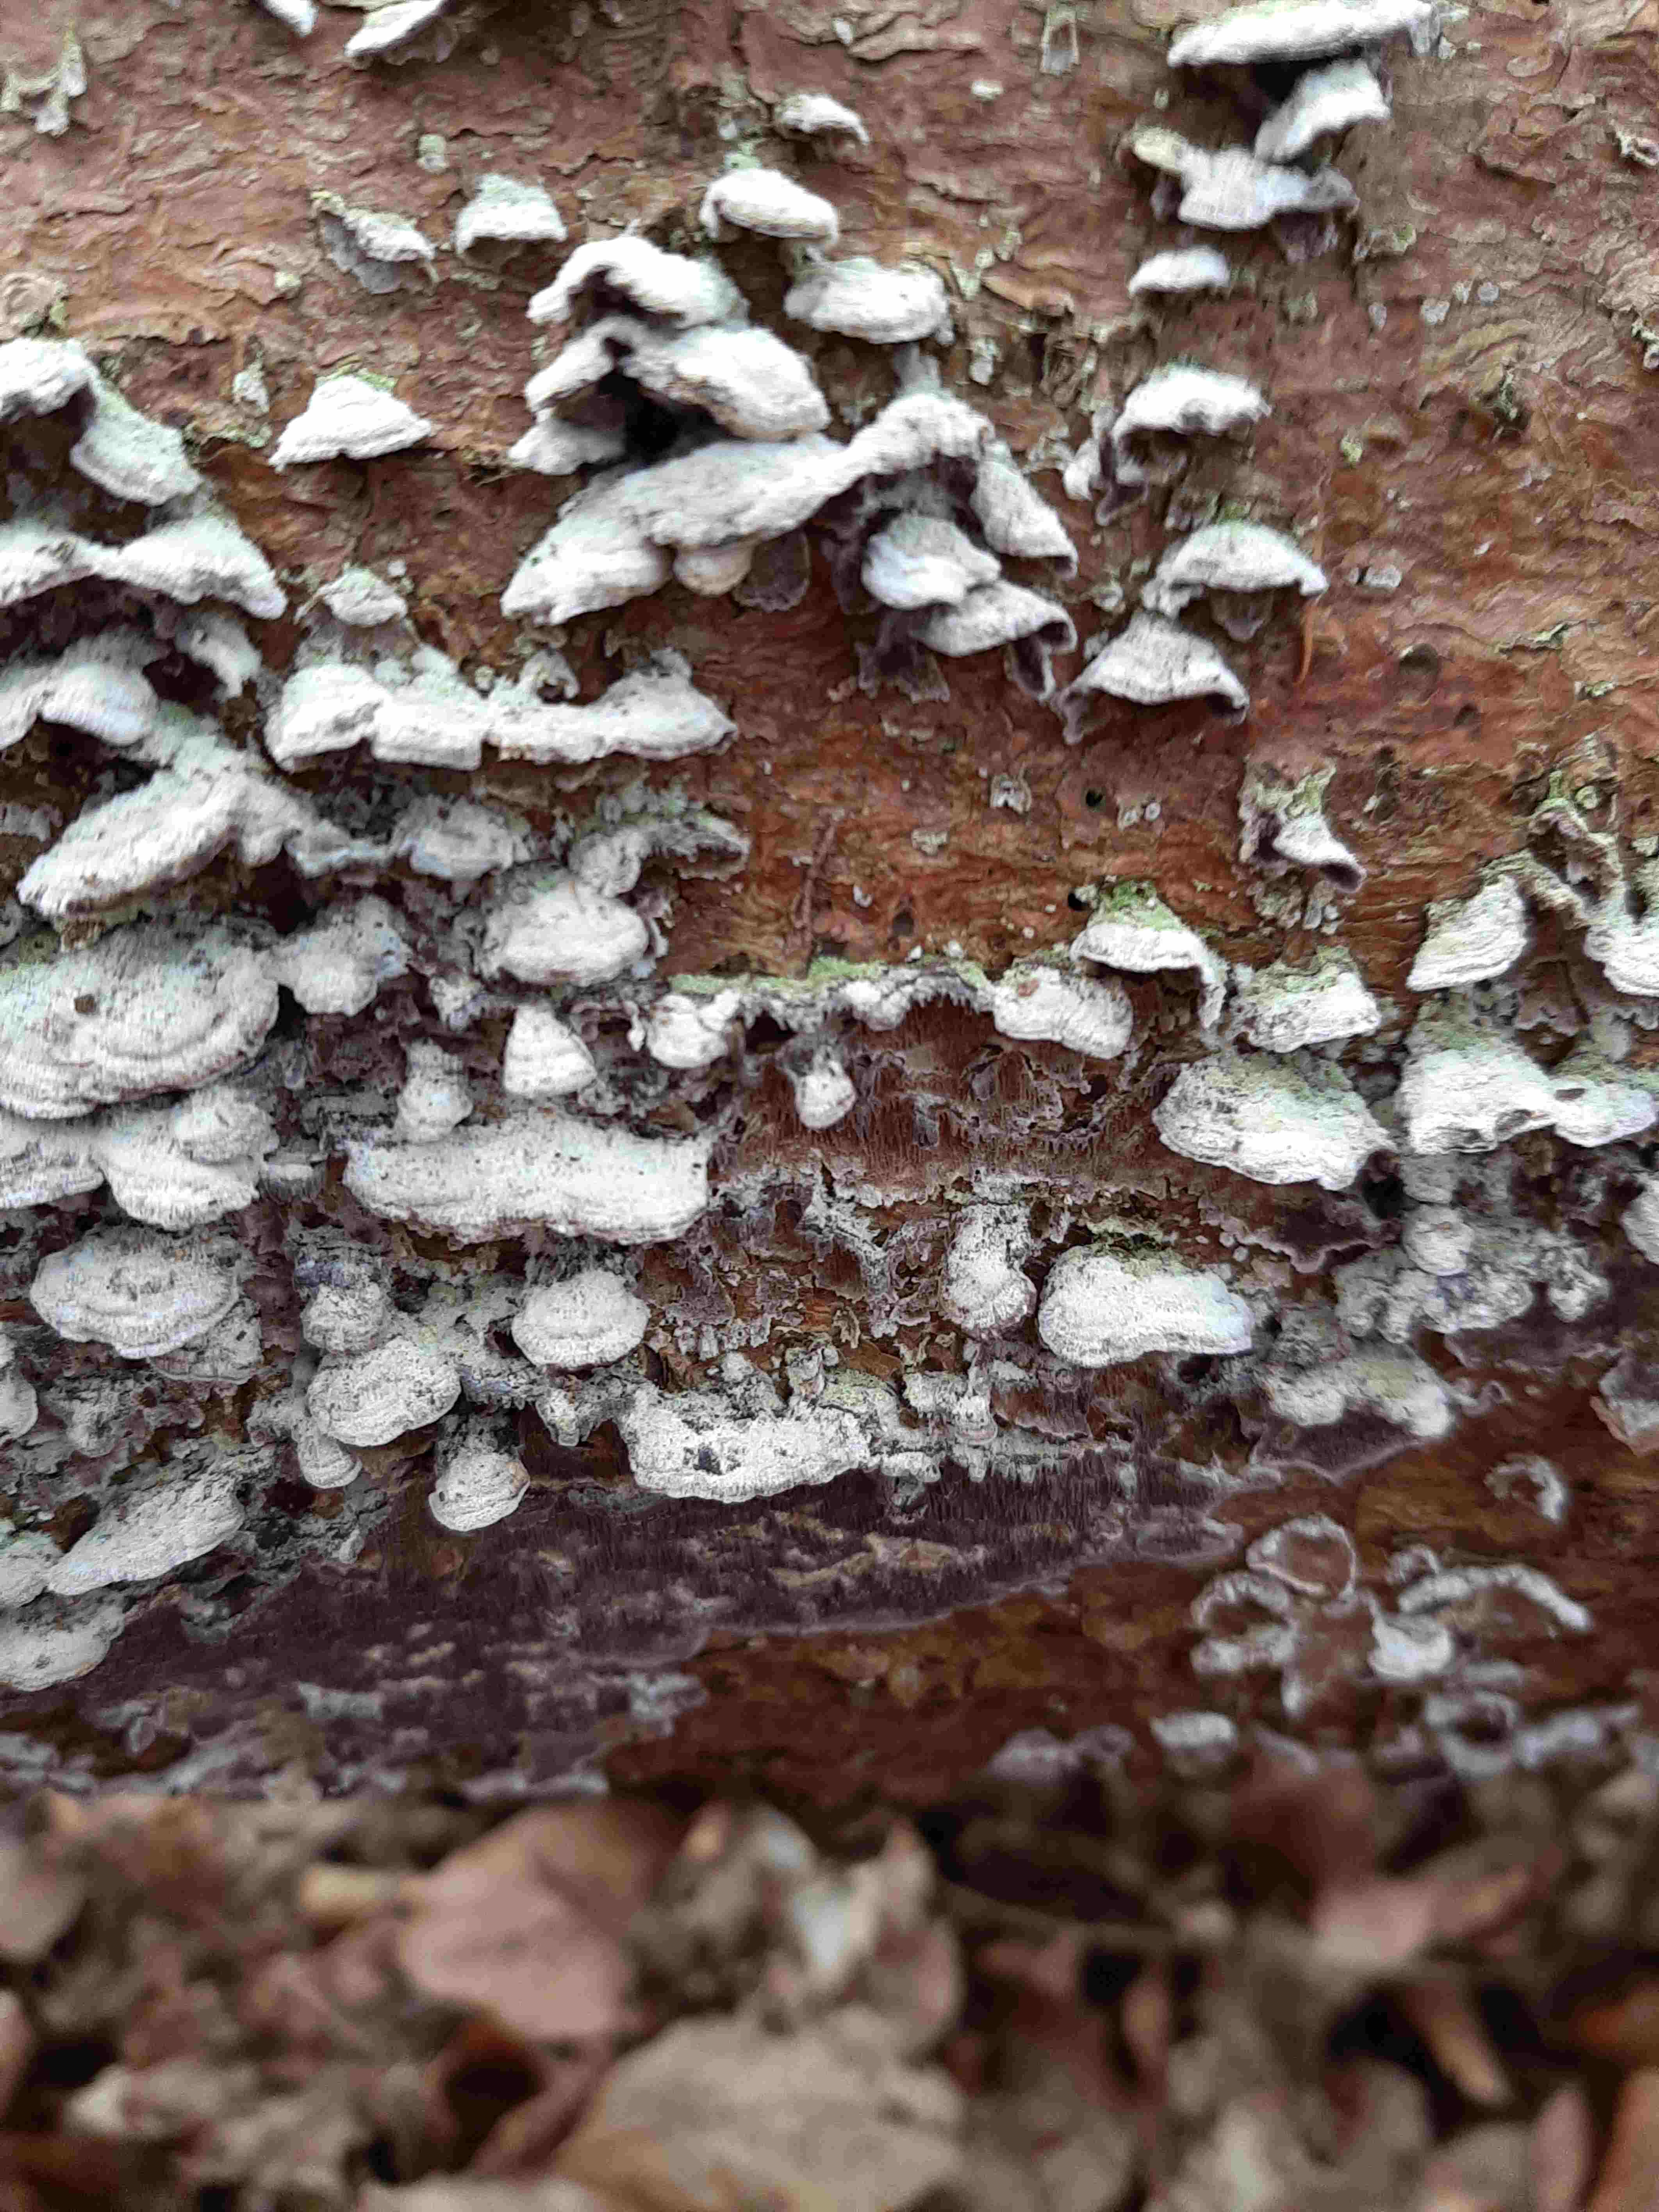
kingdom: Fungi
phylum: Basidiomycota
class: Agaricomycetes
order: Hymenochaetales
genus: Trichaptum
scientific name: Trichaptum abietinum
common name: almindelig violporesvamp
